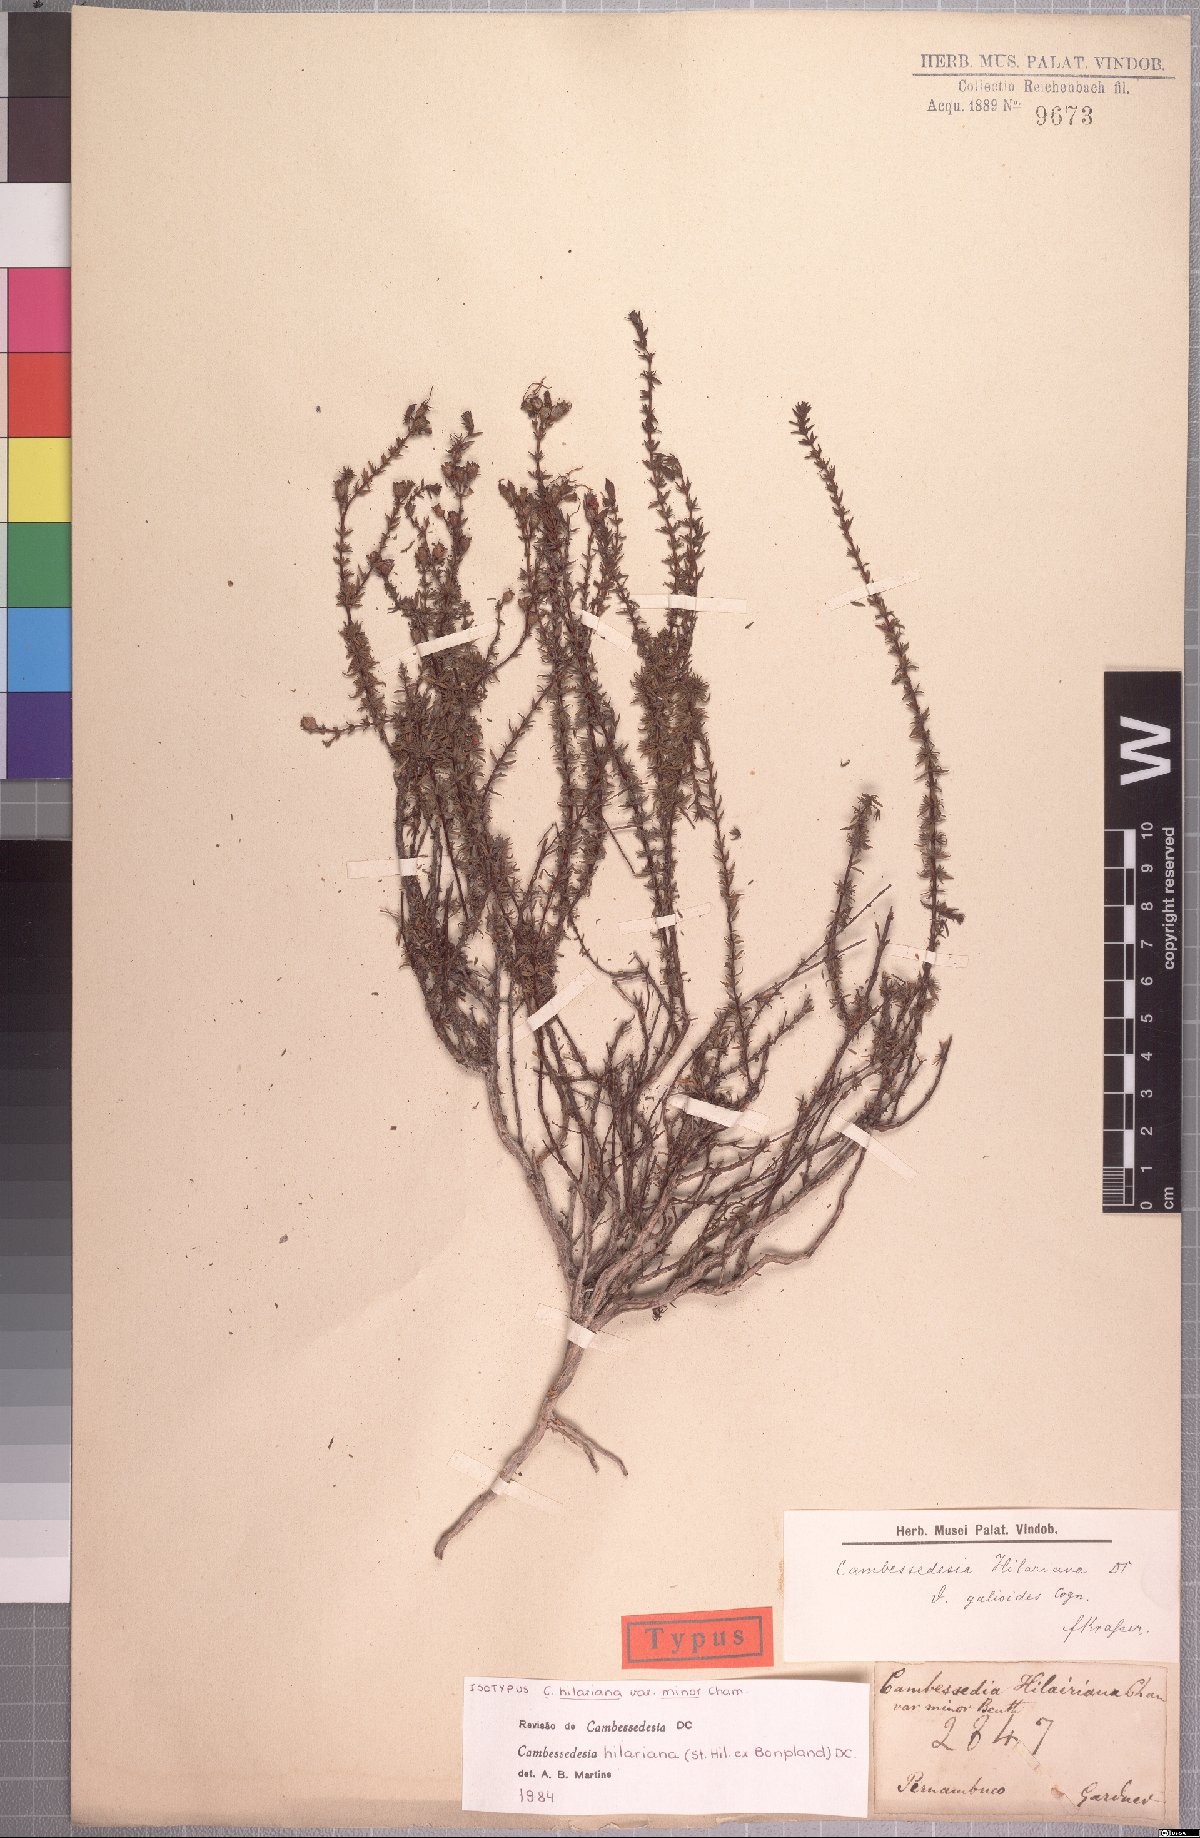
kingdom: Plantae
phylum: Tracheophyta
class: Magnoliopsida
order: Myrtales
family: Melastomataceae
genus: Cambessedesia
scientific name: Cambessedesia hilariana
